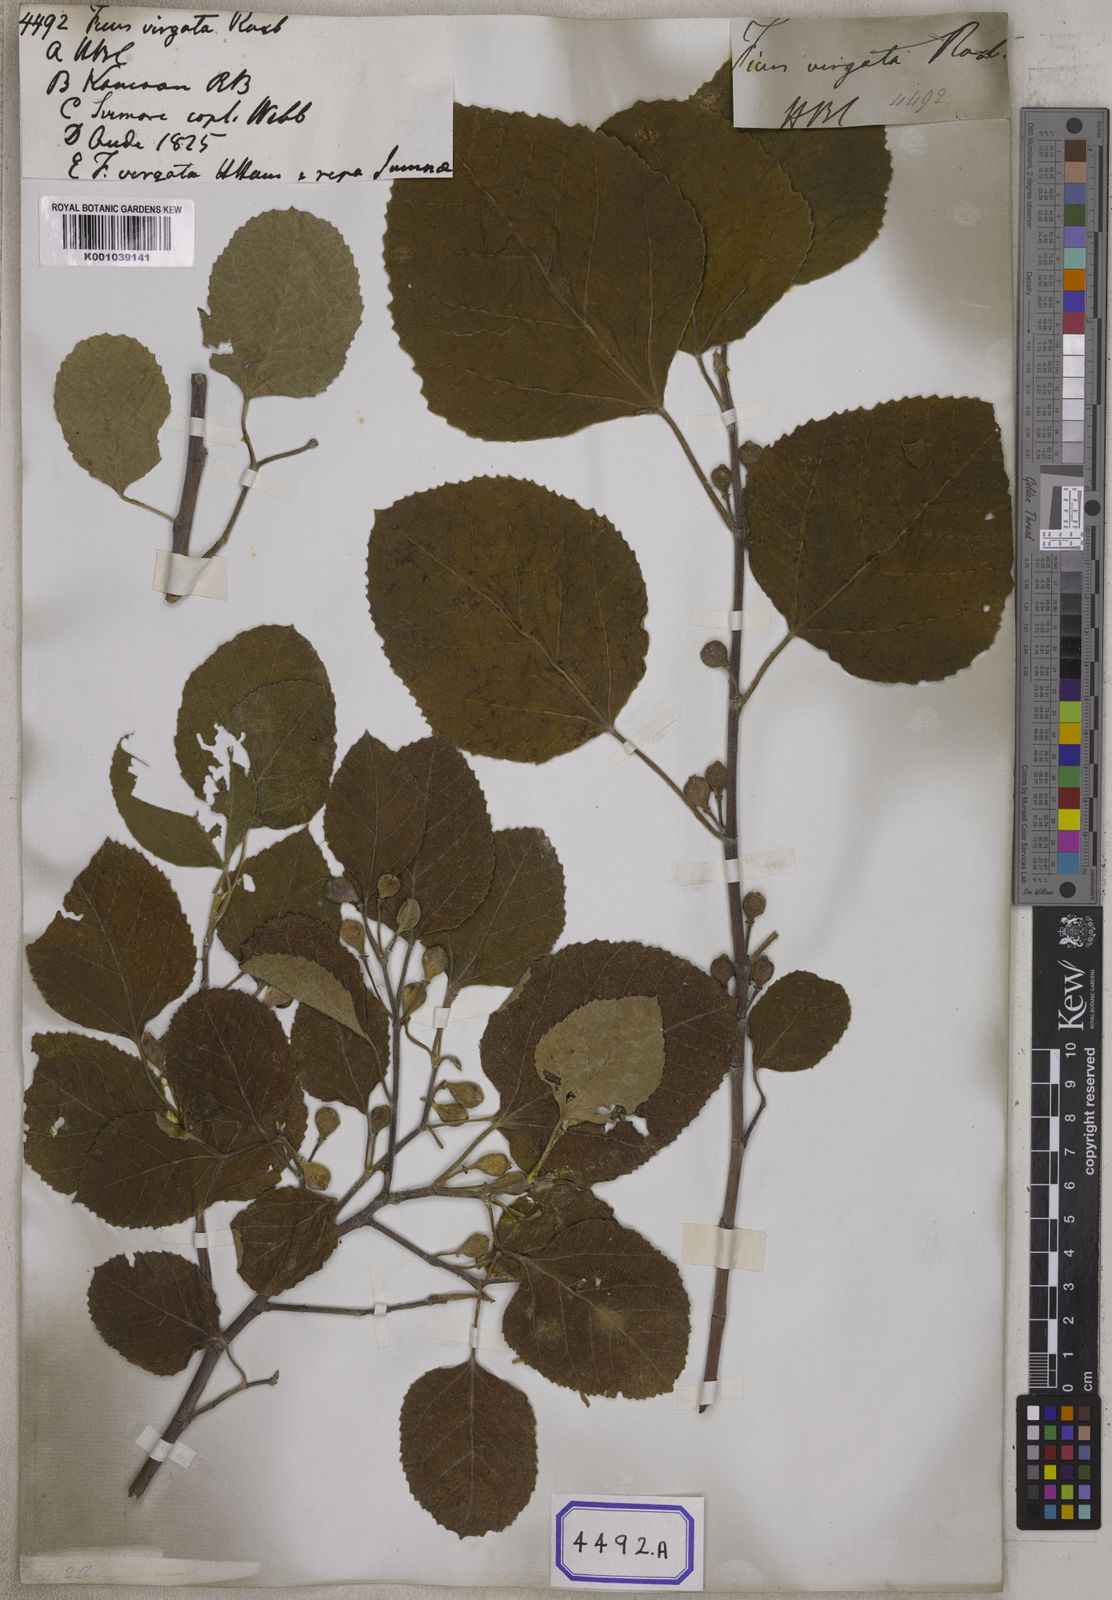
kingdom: Plantae
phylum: Tracheophyta
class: Magnoliopsida
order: Rosales
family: Moraceae
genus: Ficus
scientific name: Ficus palmata
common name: Punjab fig
